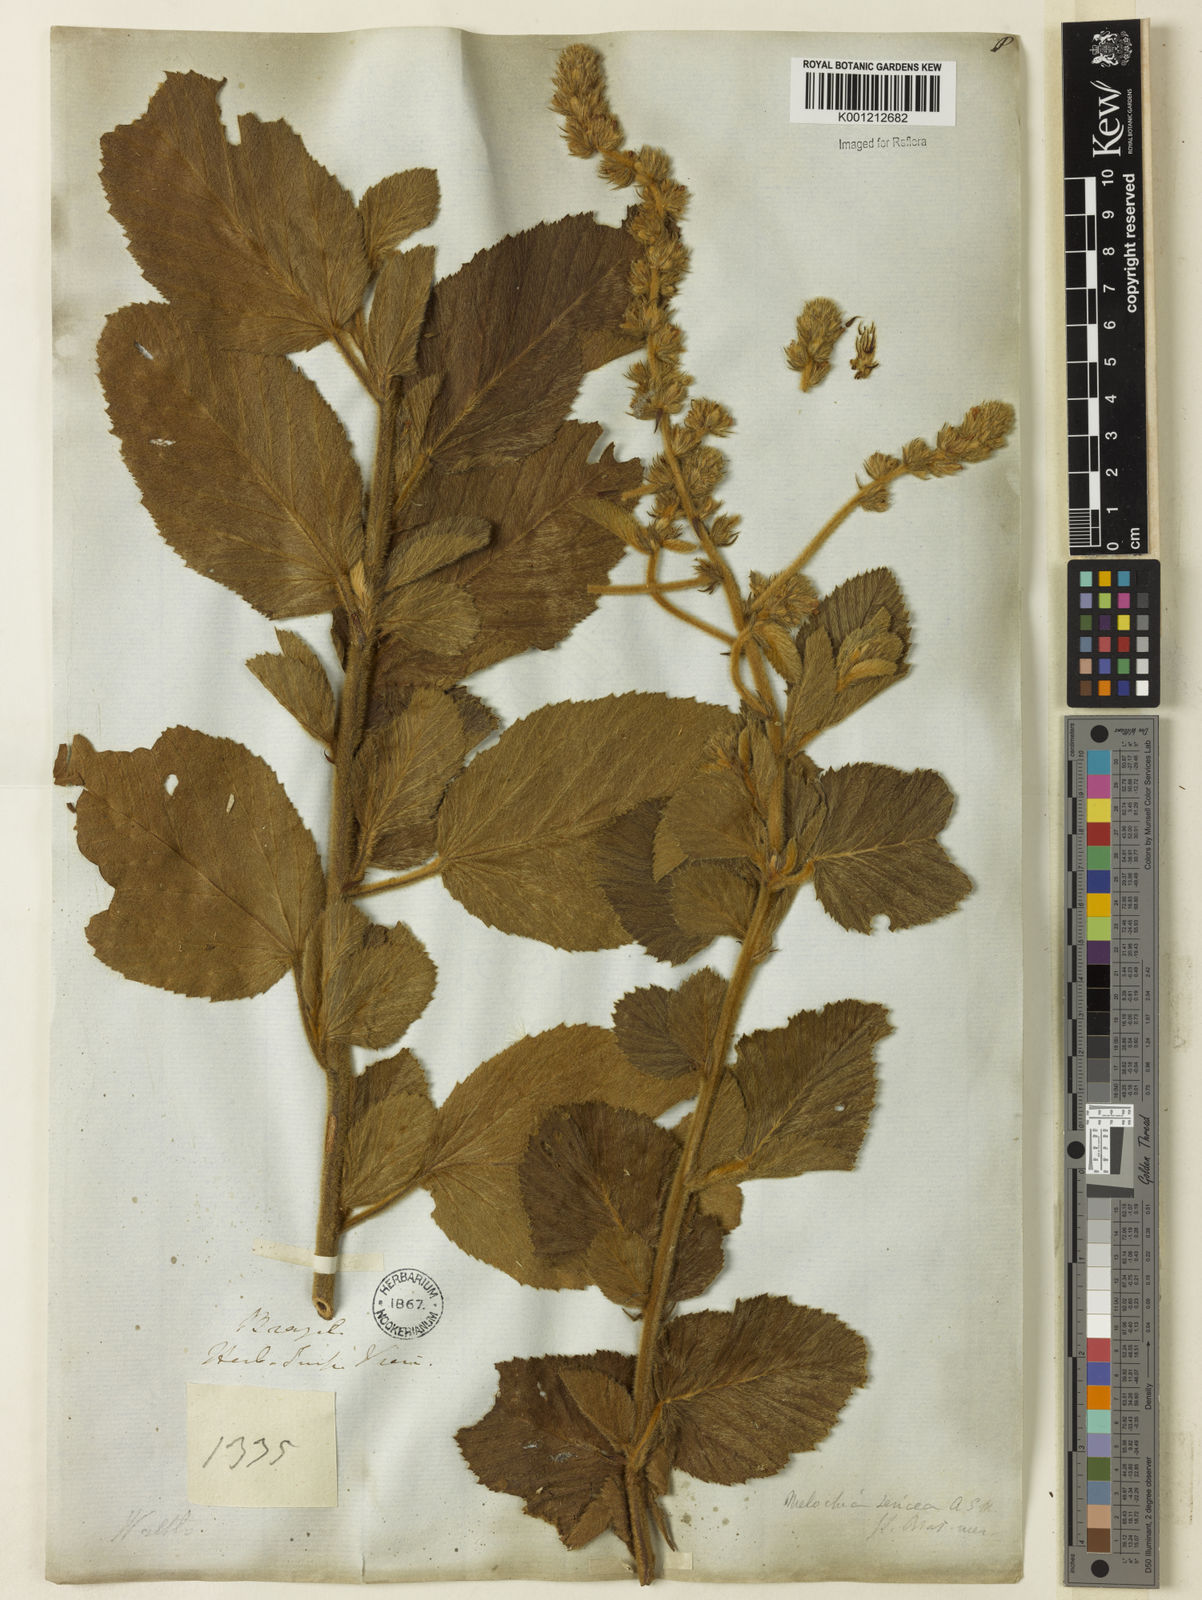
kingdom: Plantae
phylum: Tracheophyta
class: Magnoliopsida
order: Malvales
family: Malvaceae
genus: Melochia
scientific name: Melochia spicata
